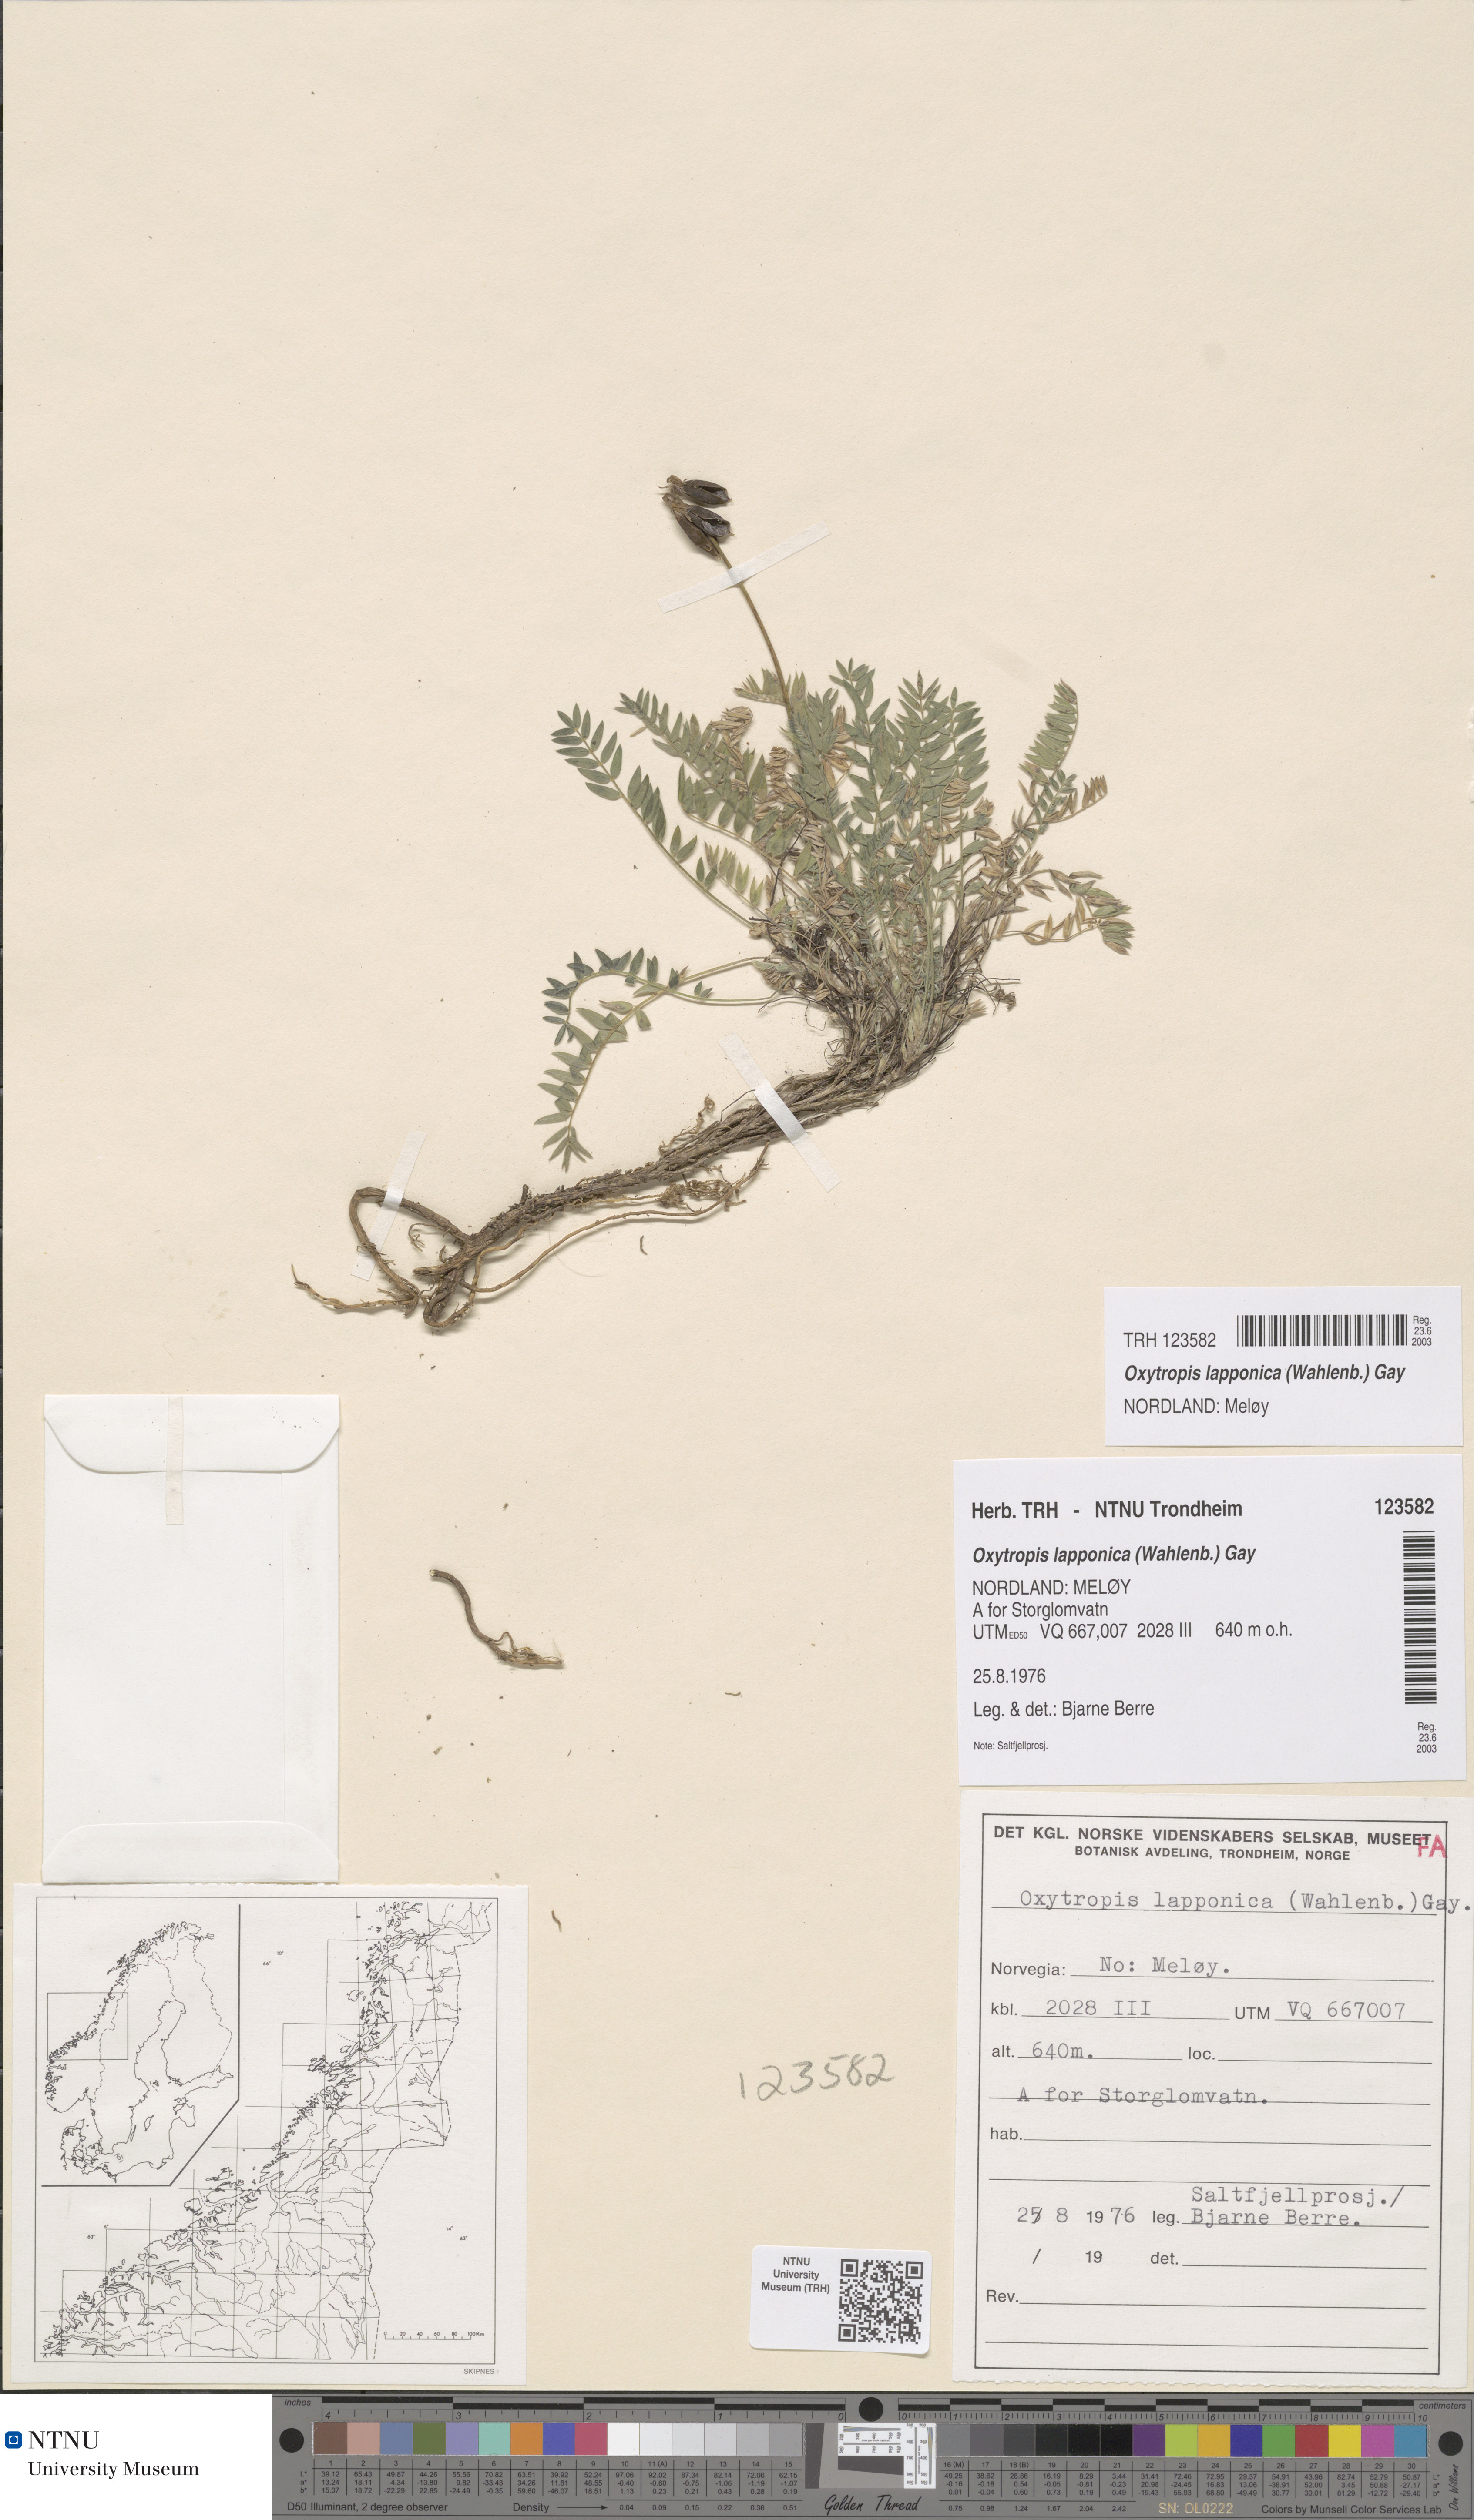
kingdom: Plantae
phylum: Tracheophyta
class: Magnoliopsida
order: Fabales
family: Fabaceae
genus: Oxytropis
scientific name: Oxytropis lapponica
